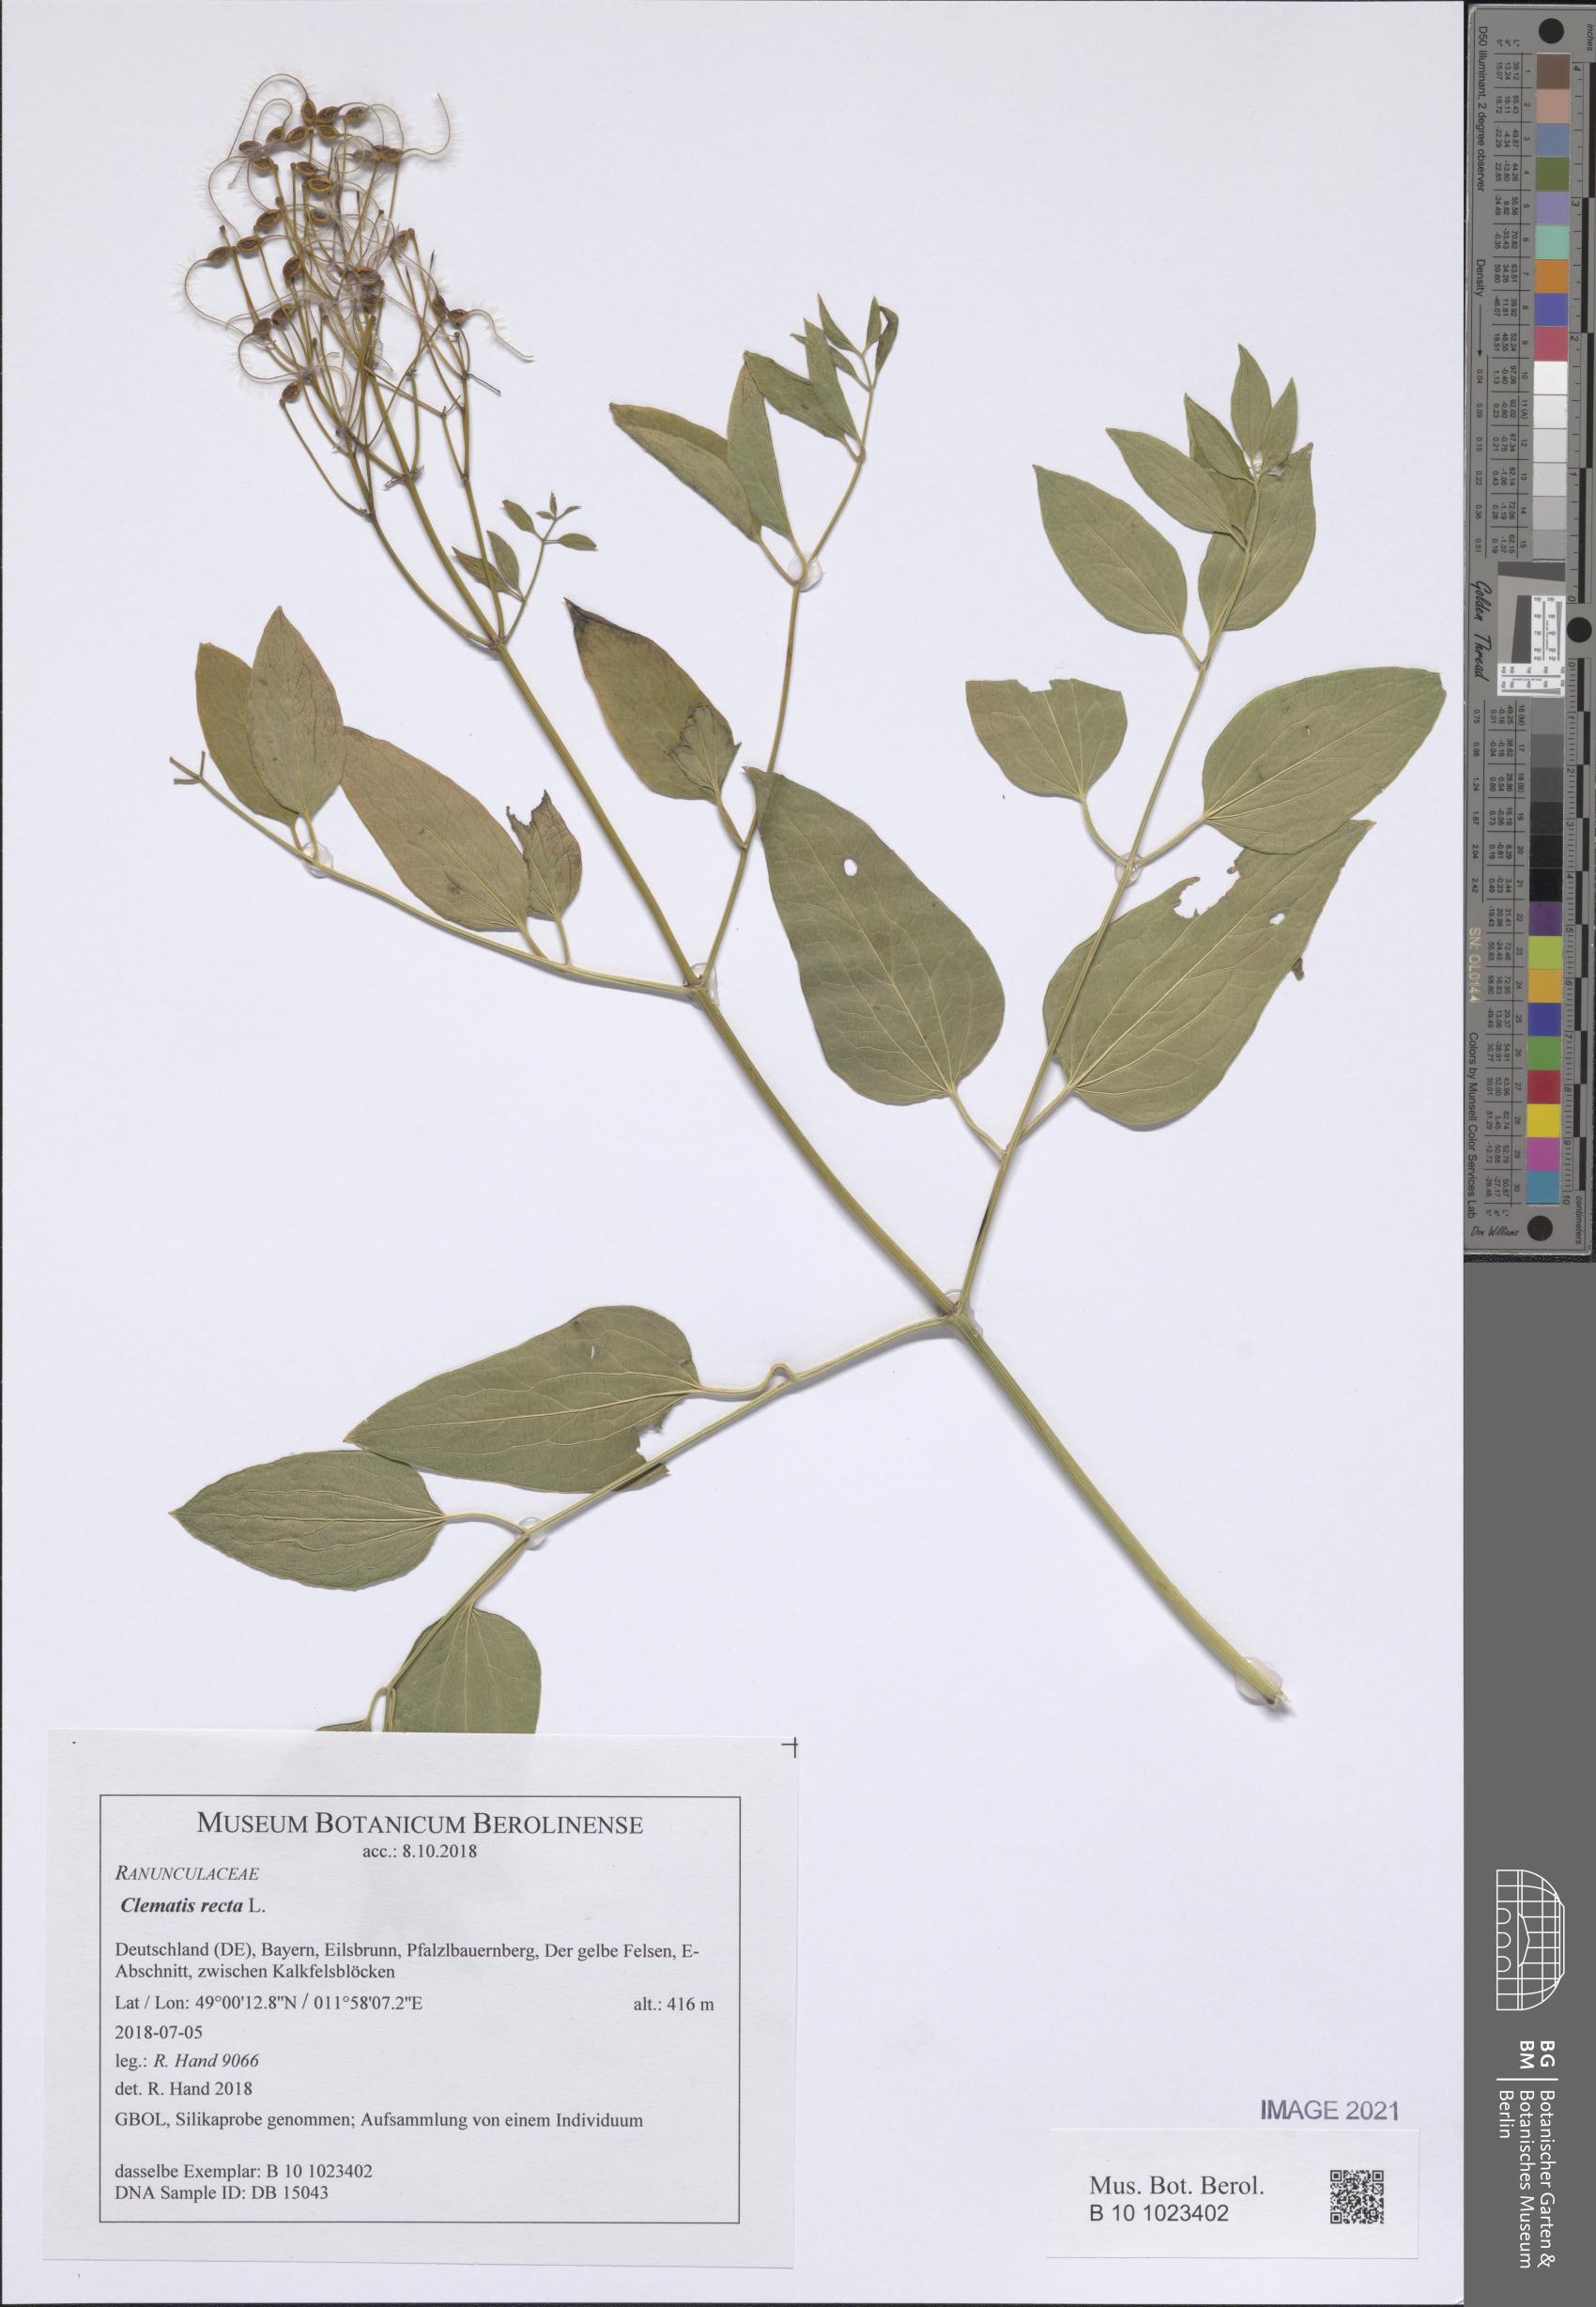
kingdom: Plantae
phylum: Tracheophyta
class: Magnoliopsida
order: Ranunculales
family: Ranunculaceae
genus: Clematis
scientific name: Clematis recta
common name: Ground clematis
